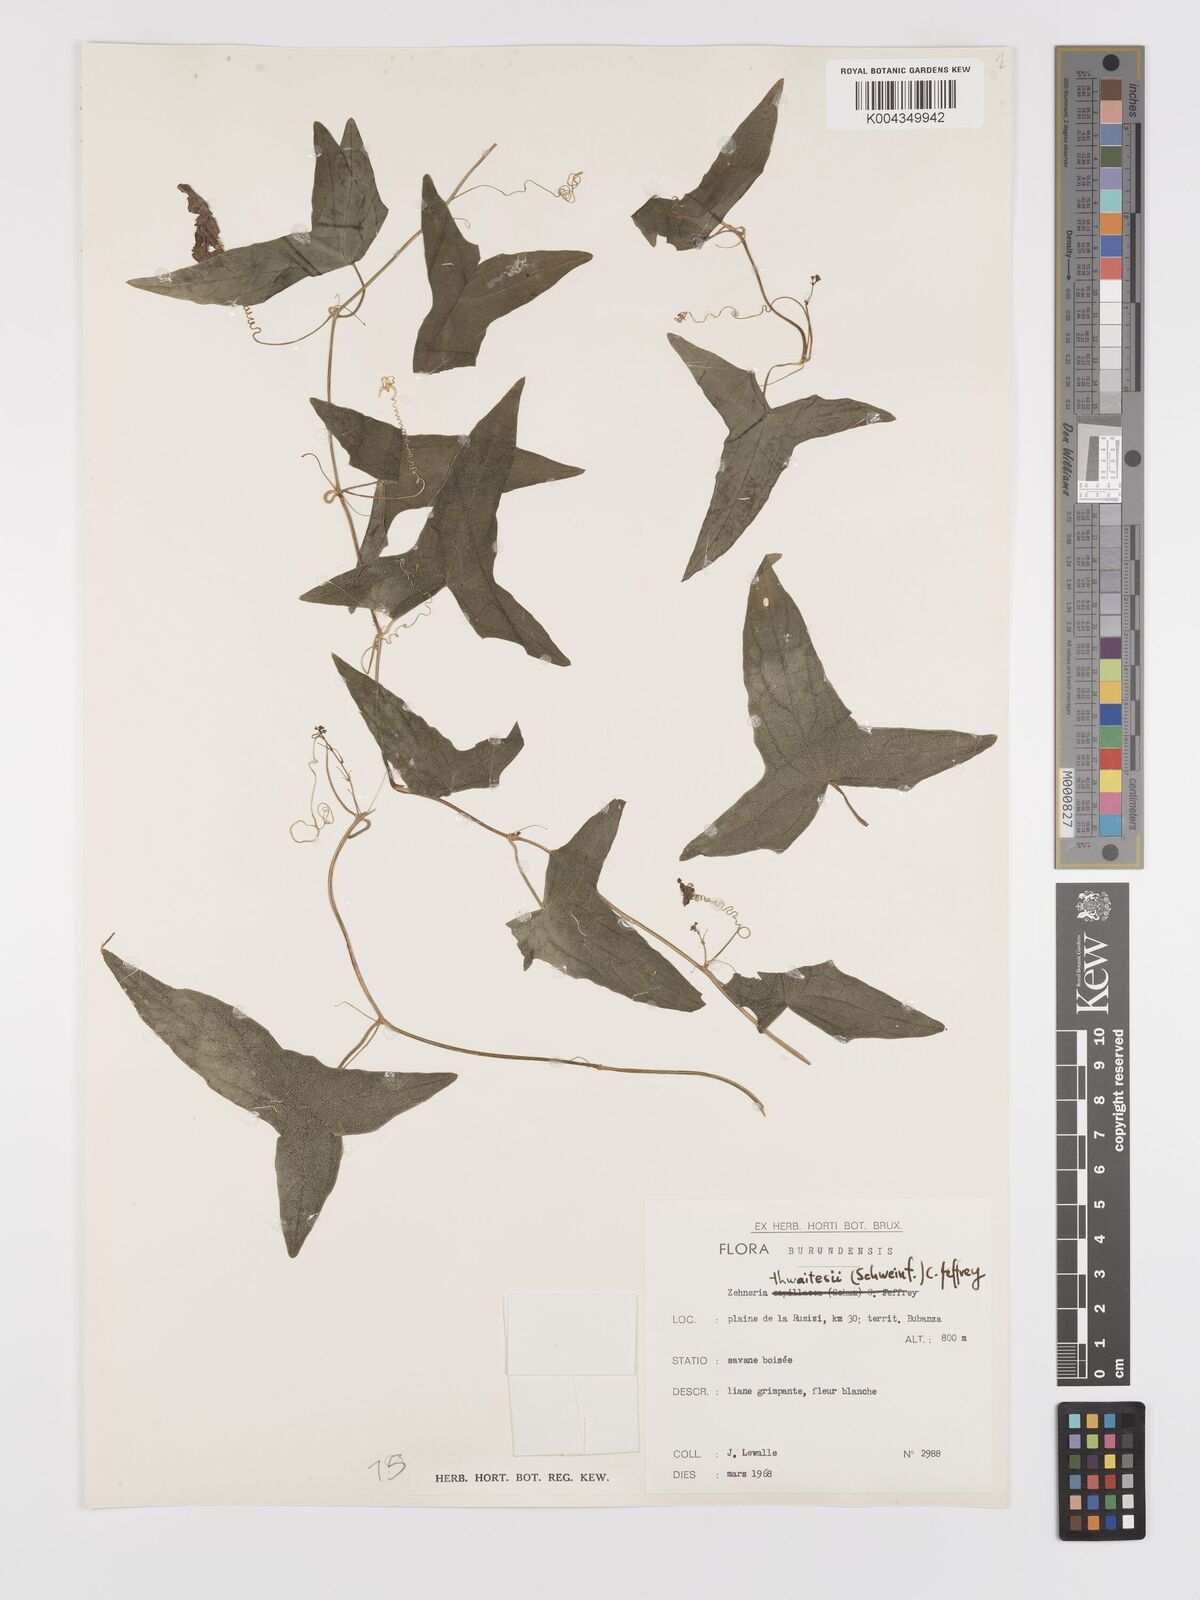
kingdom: Plantae
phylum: Tracheophyta
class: Magnoliopsida
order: Cucurbitales
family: Cucurbitaceae
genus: Zehneria
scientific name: Zehneria thwaitesii
